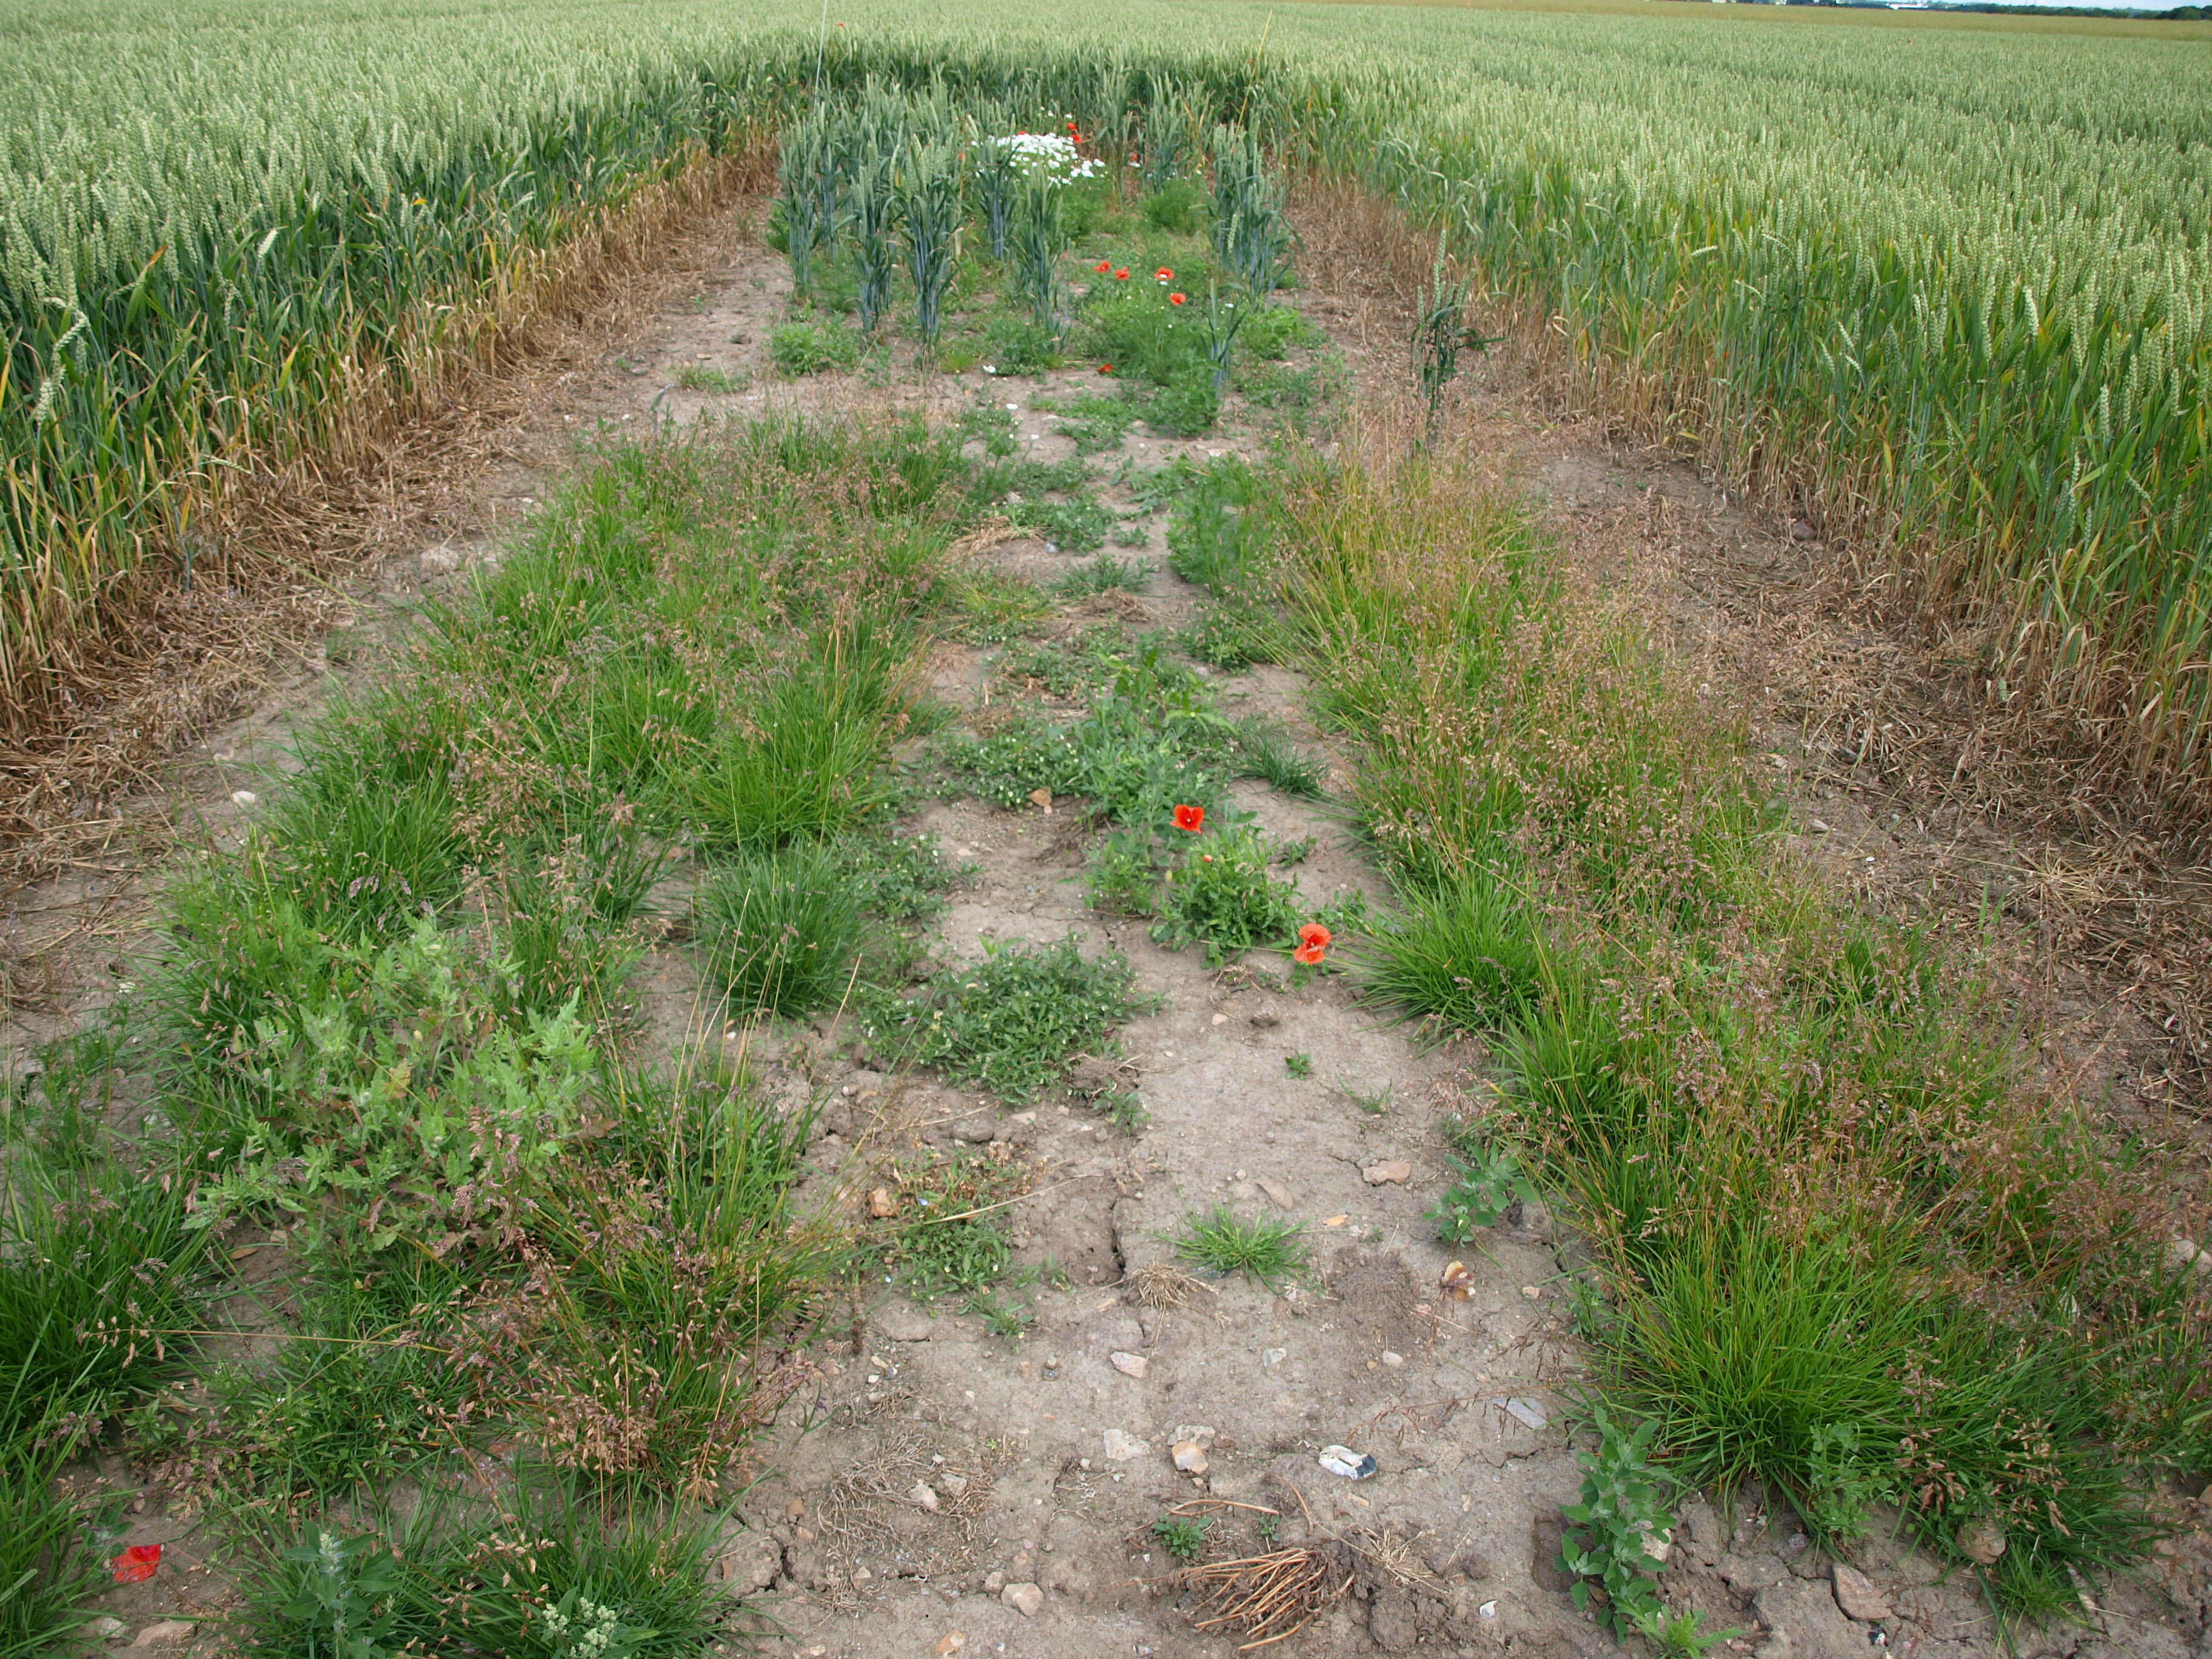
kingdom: Plantae
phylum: Tracheophyta
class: Liliopsida
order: Poales
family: Poaceae
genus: Poa
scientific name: Poa pratensis
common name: Kentucky bluegrass
